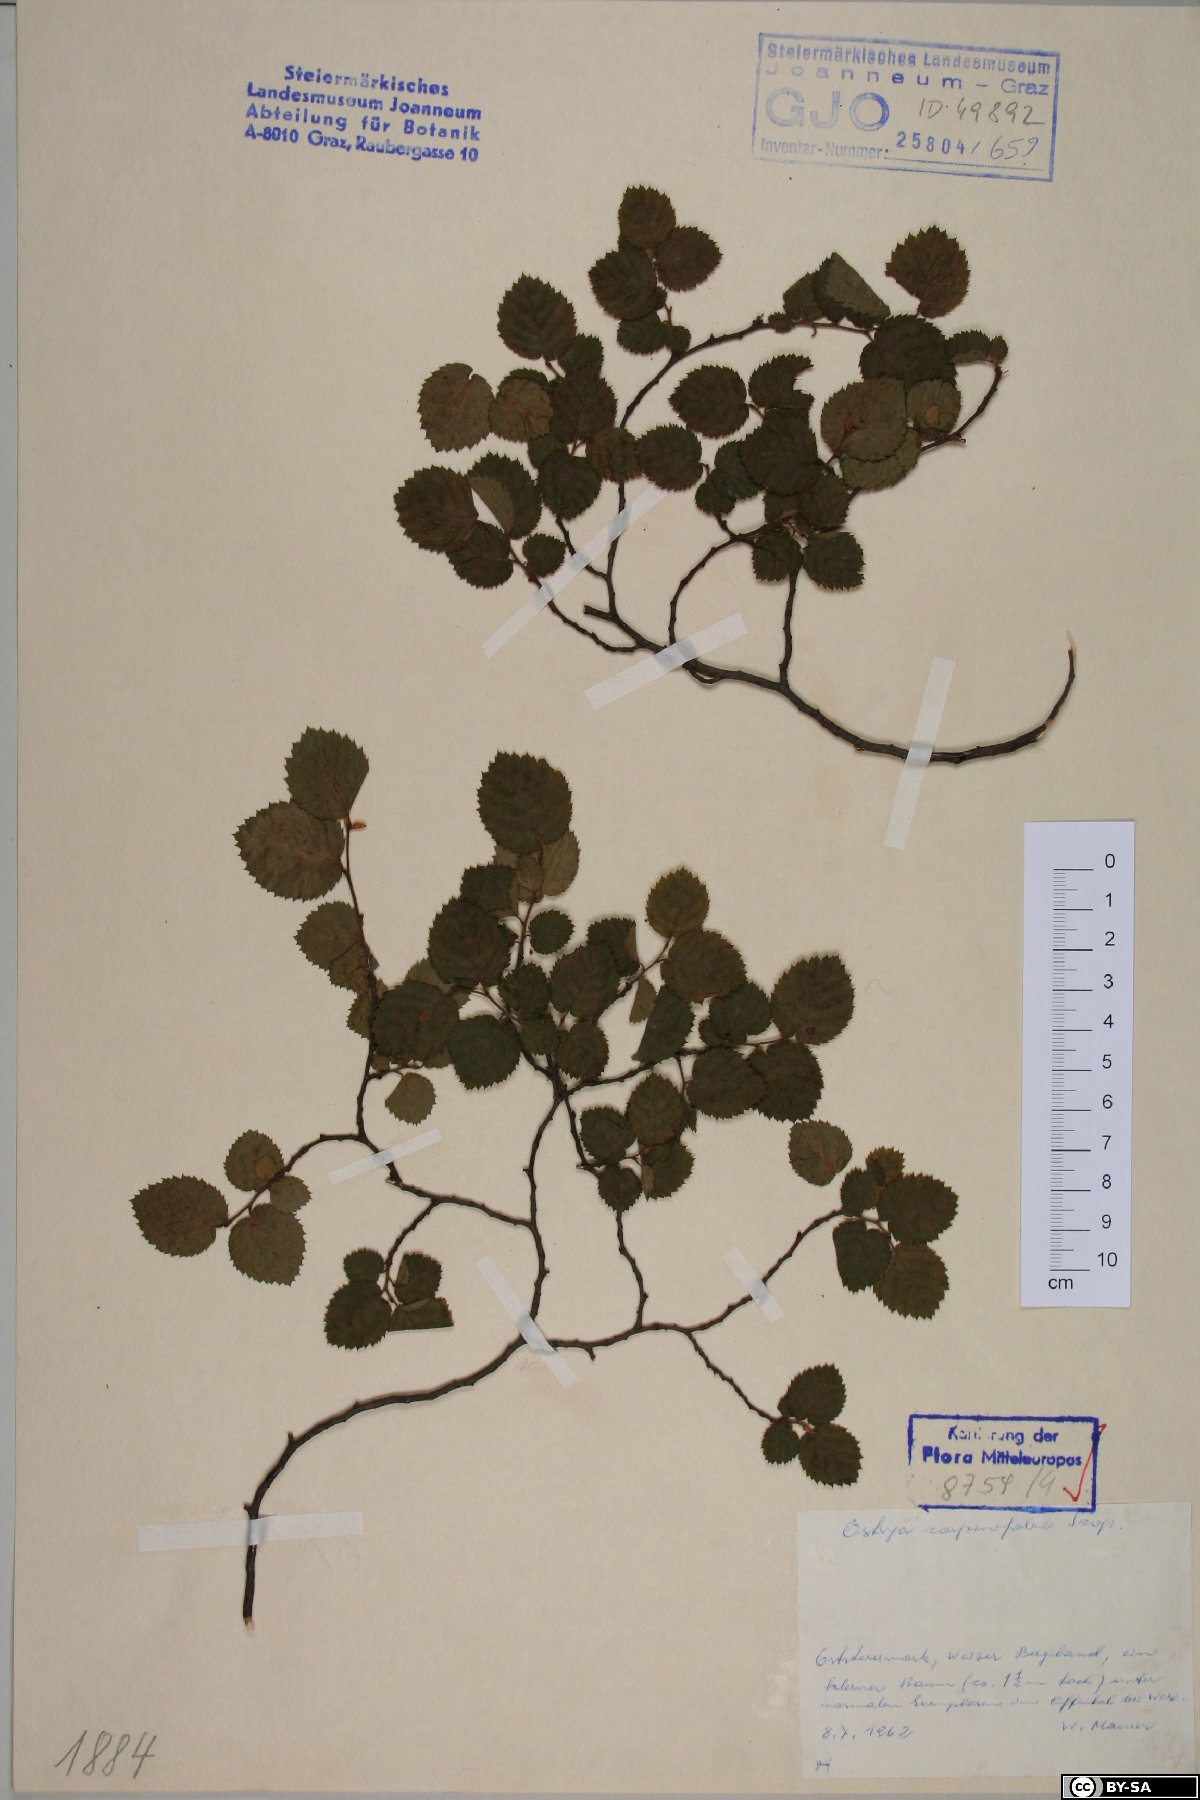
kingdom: Plantae
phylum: Tracheophyta
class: Magnoliopsida
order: Fagales
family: Betulaceae
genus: Ostrya
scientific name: Ostrya carpinifolia
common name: European hop-hornbeam
